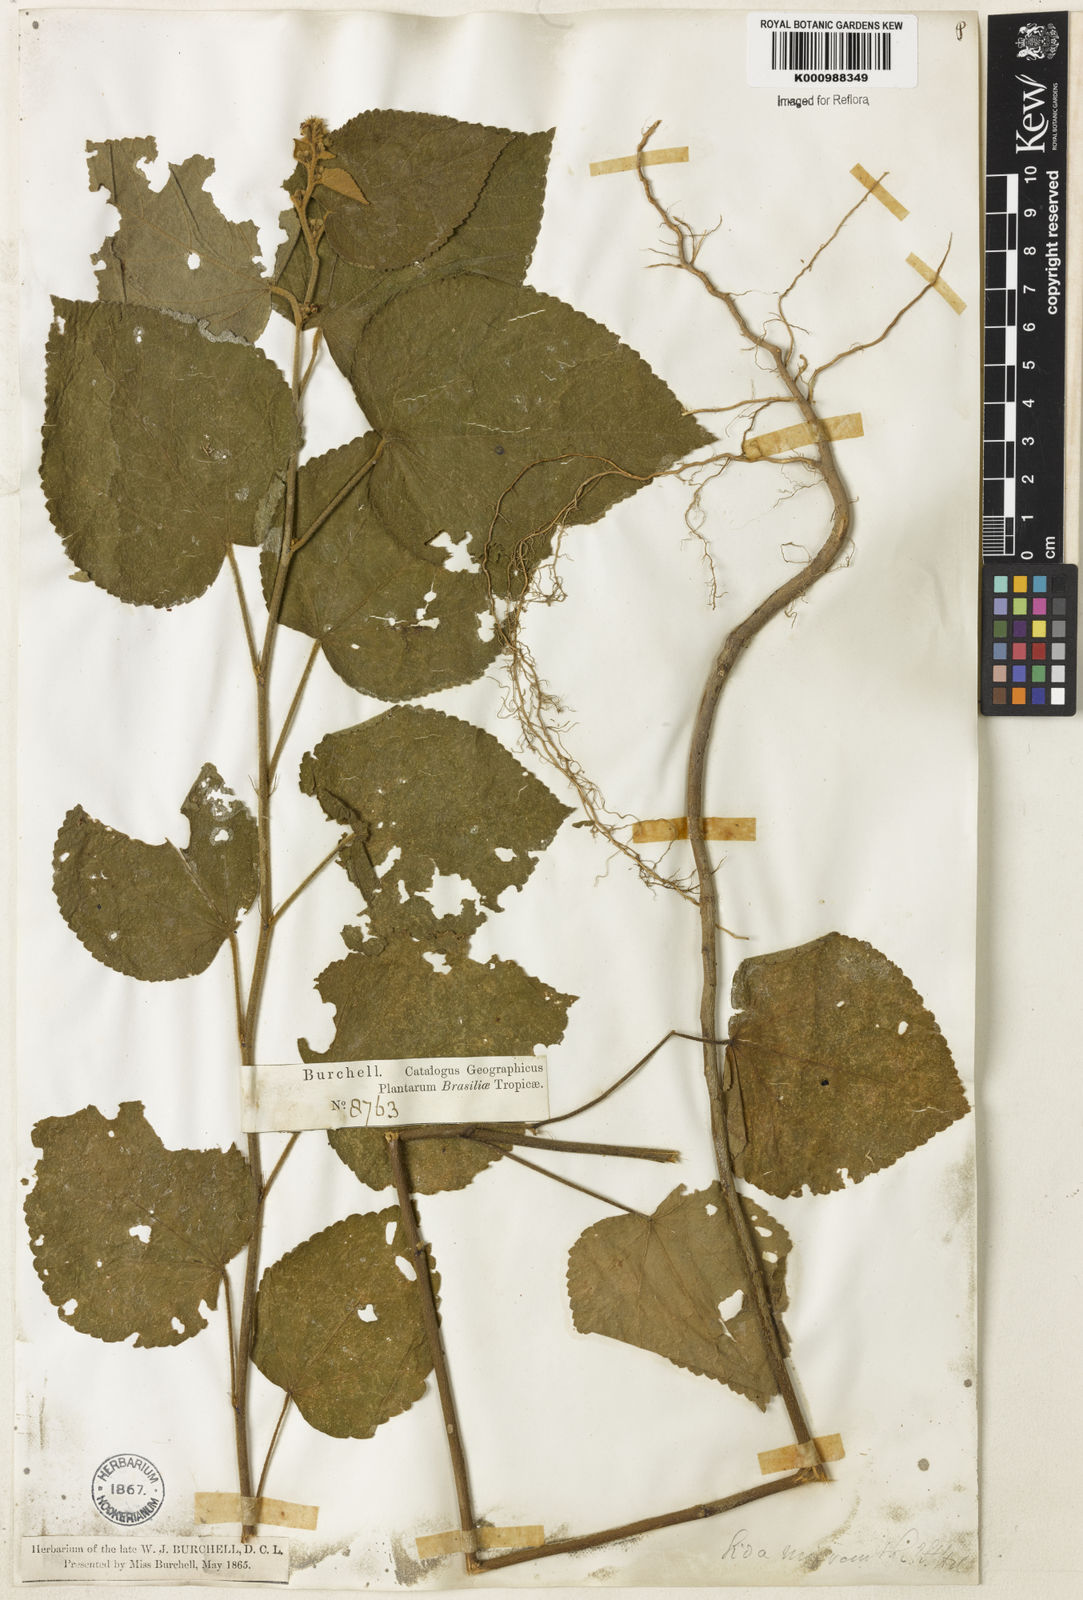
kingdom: Plantae
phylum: Tracheophyta
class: Magnoliopsida
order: Malvales
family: Malvaceae
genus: Sidastrum
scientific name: Sidastrum micranthum
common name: Dainty sandmallow
